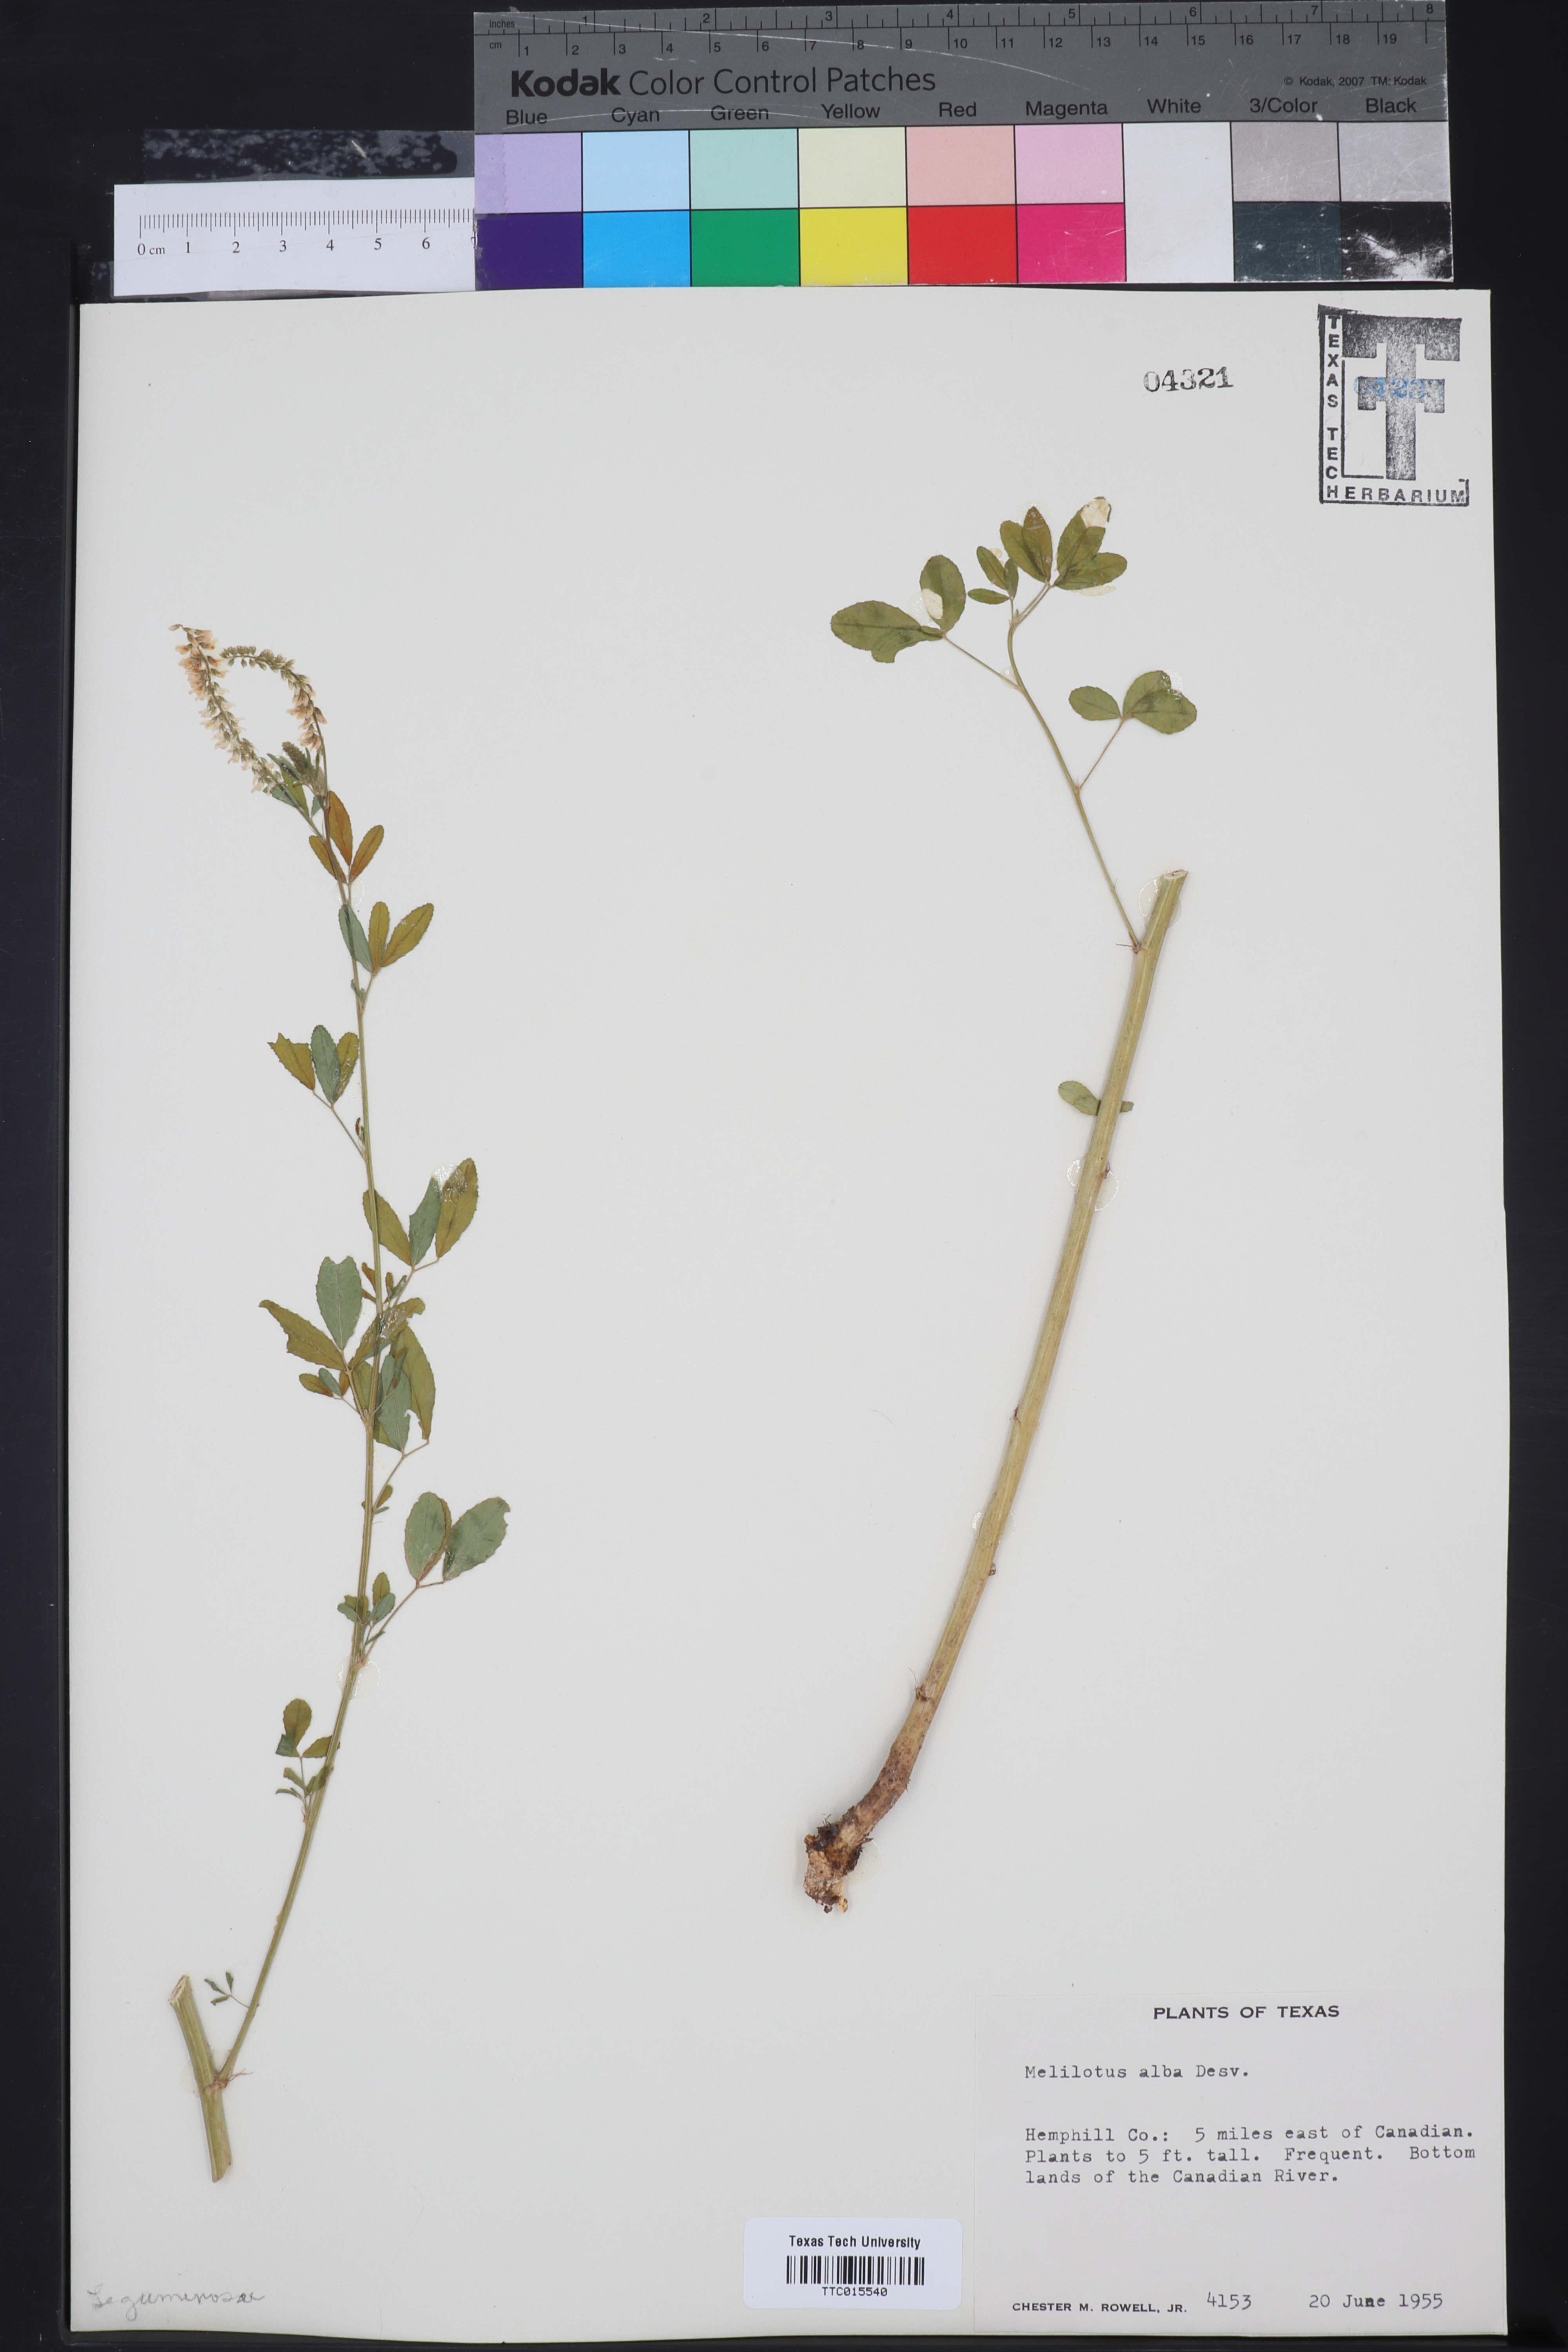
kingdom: Plantae
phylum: Tracheophyta
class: Magnoliopsida
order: Fabales
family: Fabaceae
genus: Melilotus
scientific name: Melilotus albus
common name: White melilot
